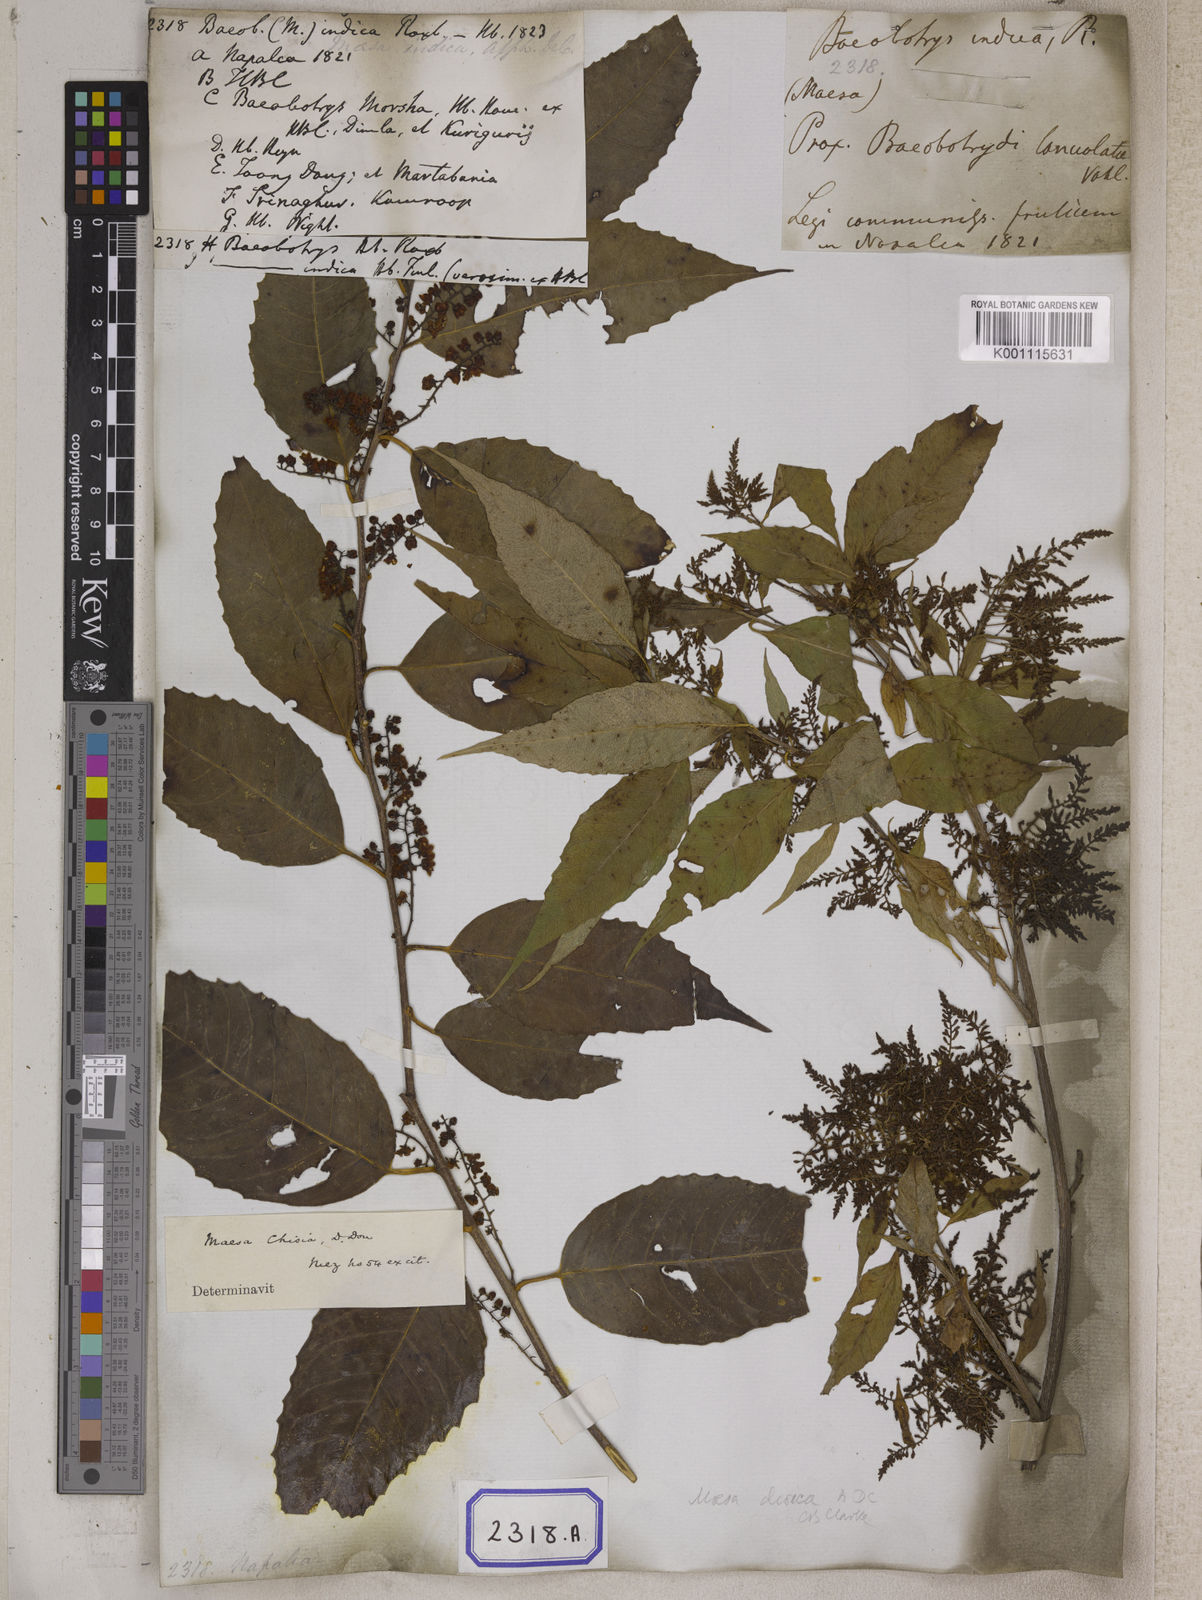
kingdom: Plantae
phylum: Tracheophyta
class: Magnoliopsida
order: Ericales
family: Primulaceae
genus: Maesa
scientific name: Maesa indica
